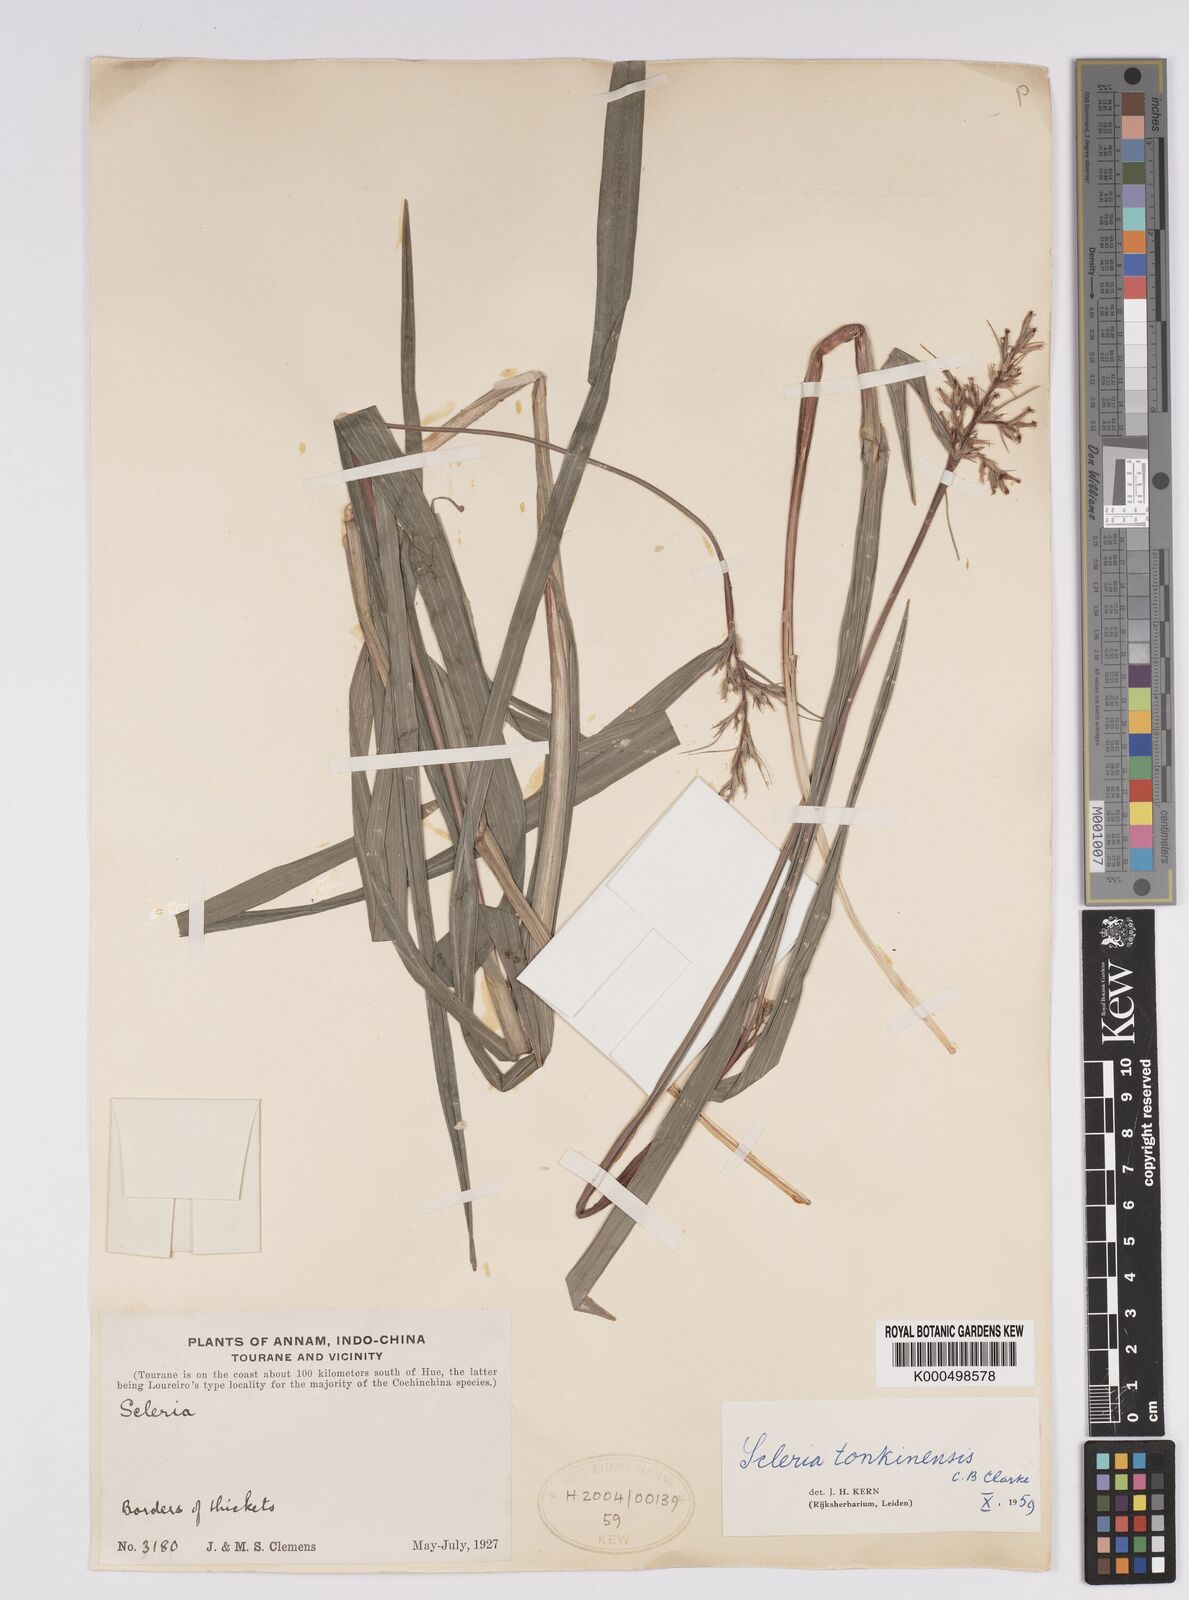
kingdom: Plantae
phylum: Tracheophyta
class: Liliopsida
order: Poales
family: Cyperaceae
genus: Scleria
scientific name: Scleria tonkinensis
